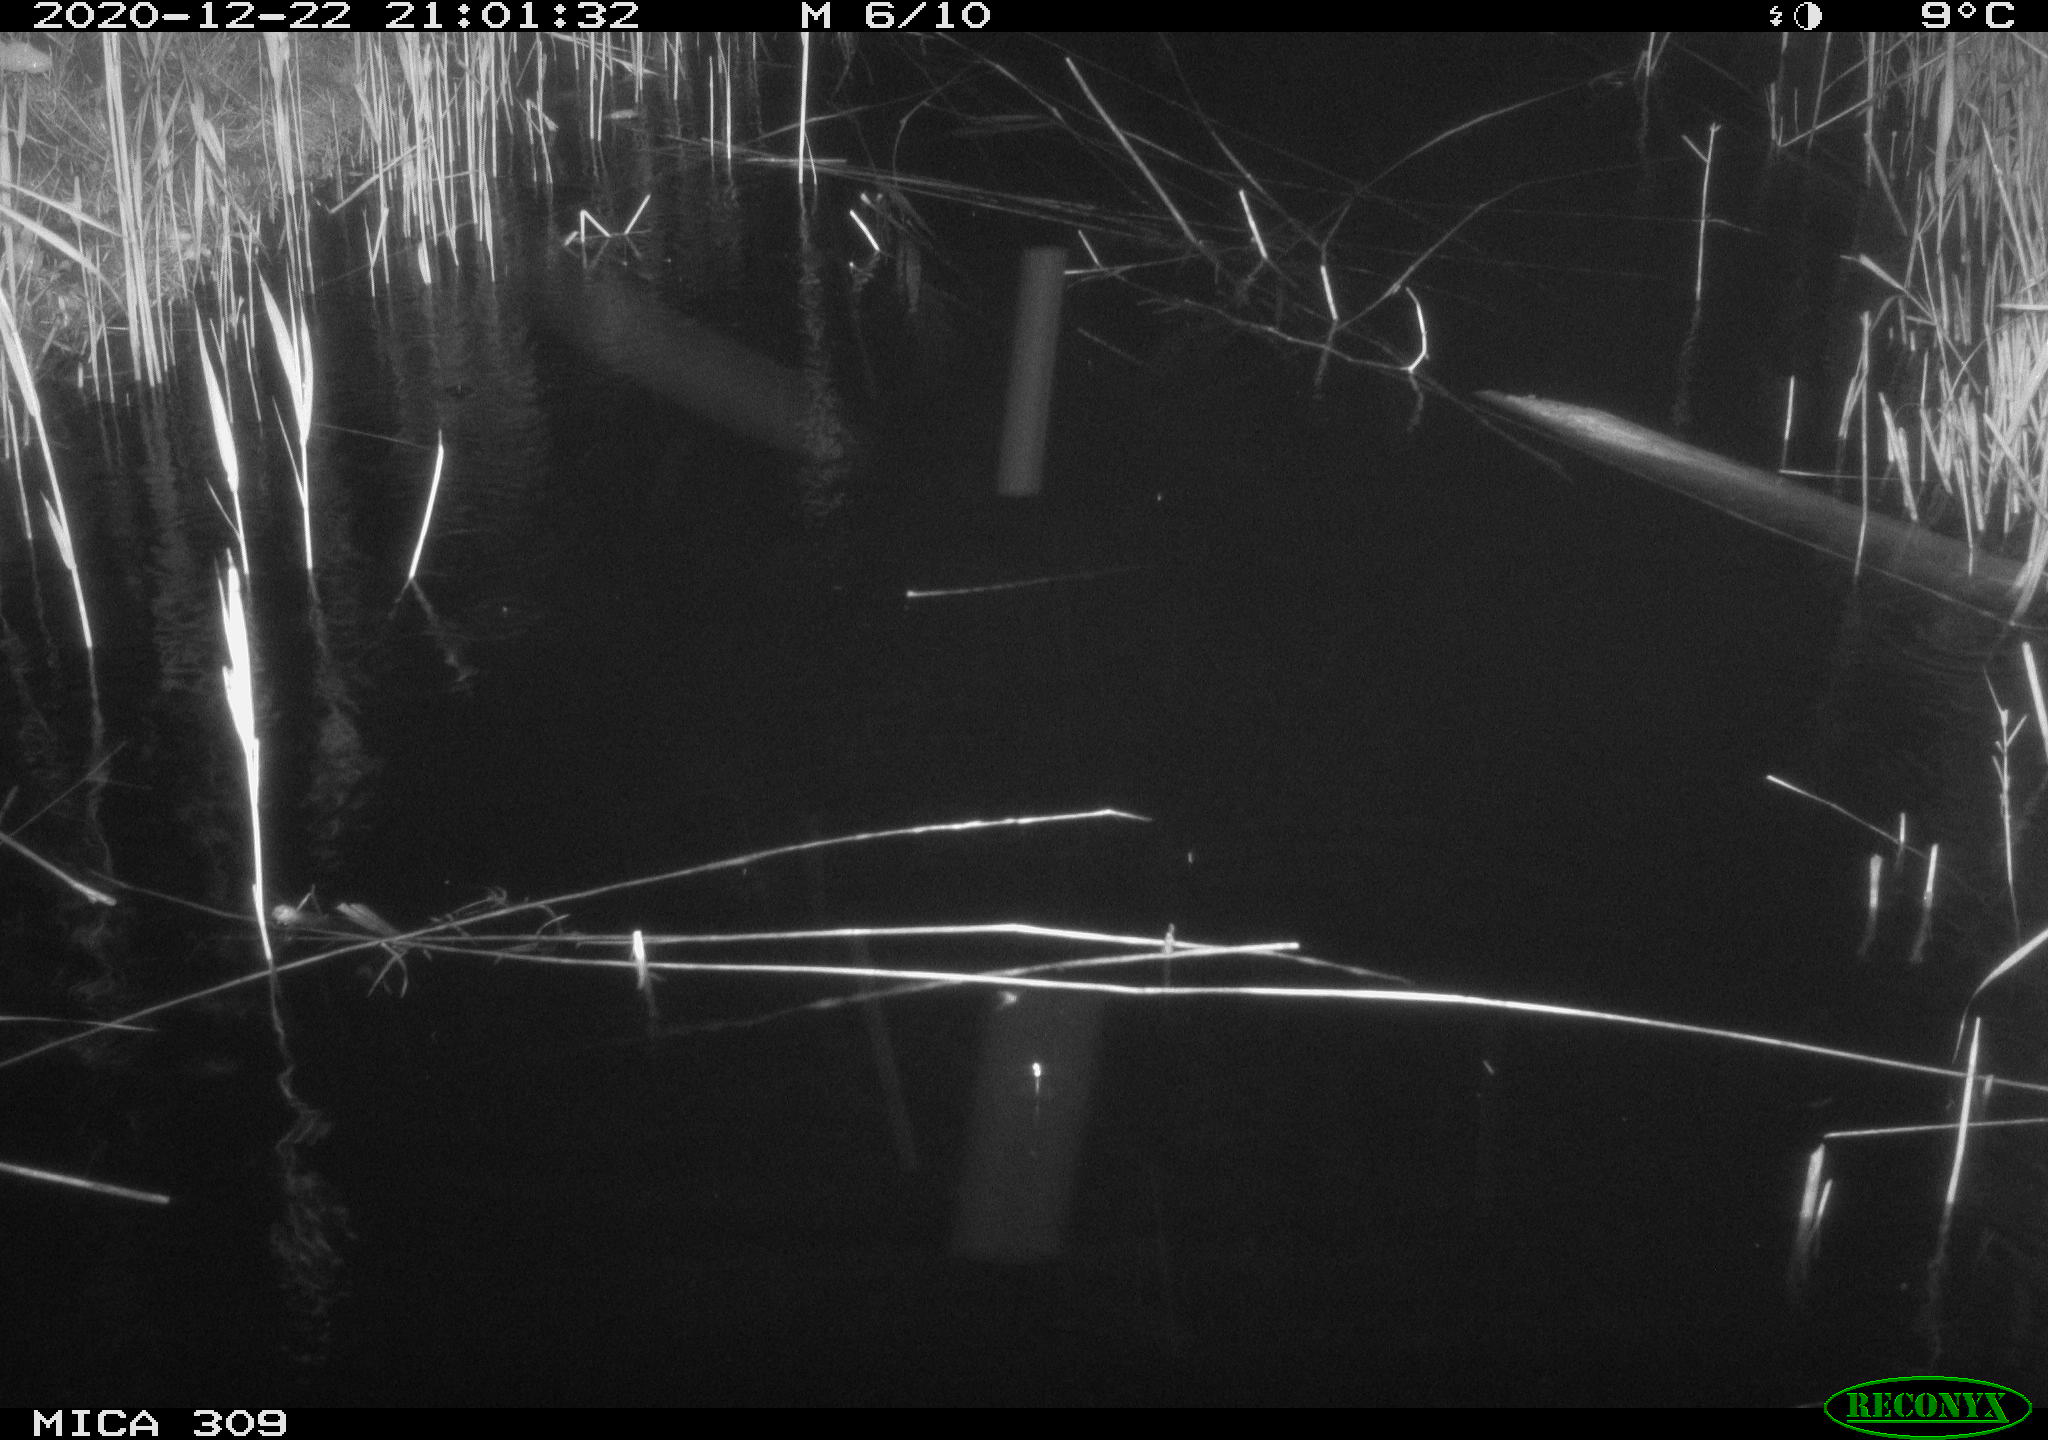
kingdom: Animalia
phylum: Chordata
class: Mammalia
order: Rodentia
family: Muridae
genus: Rattus
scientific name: Rattus norvegicus
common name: Brown rat
